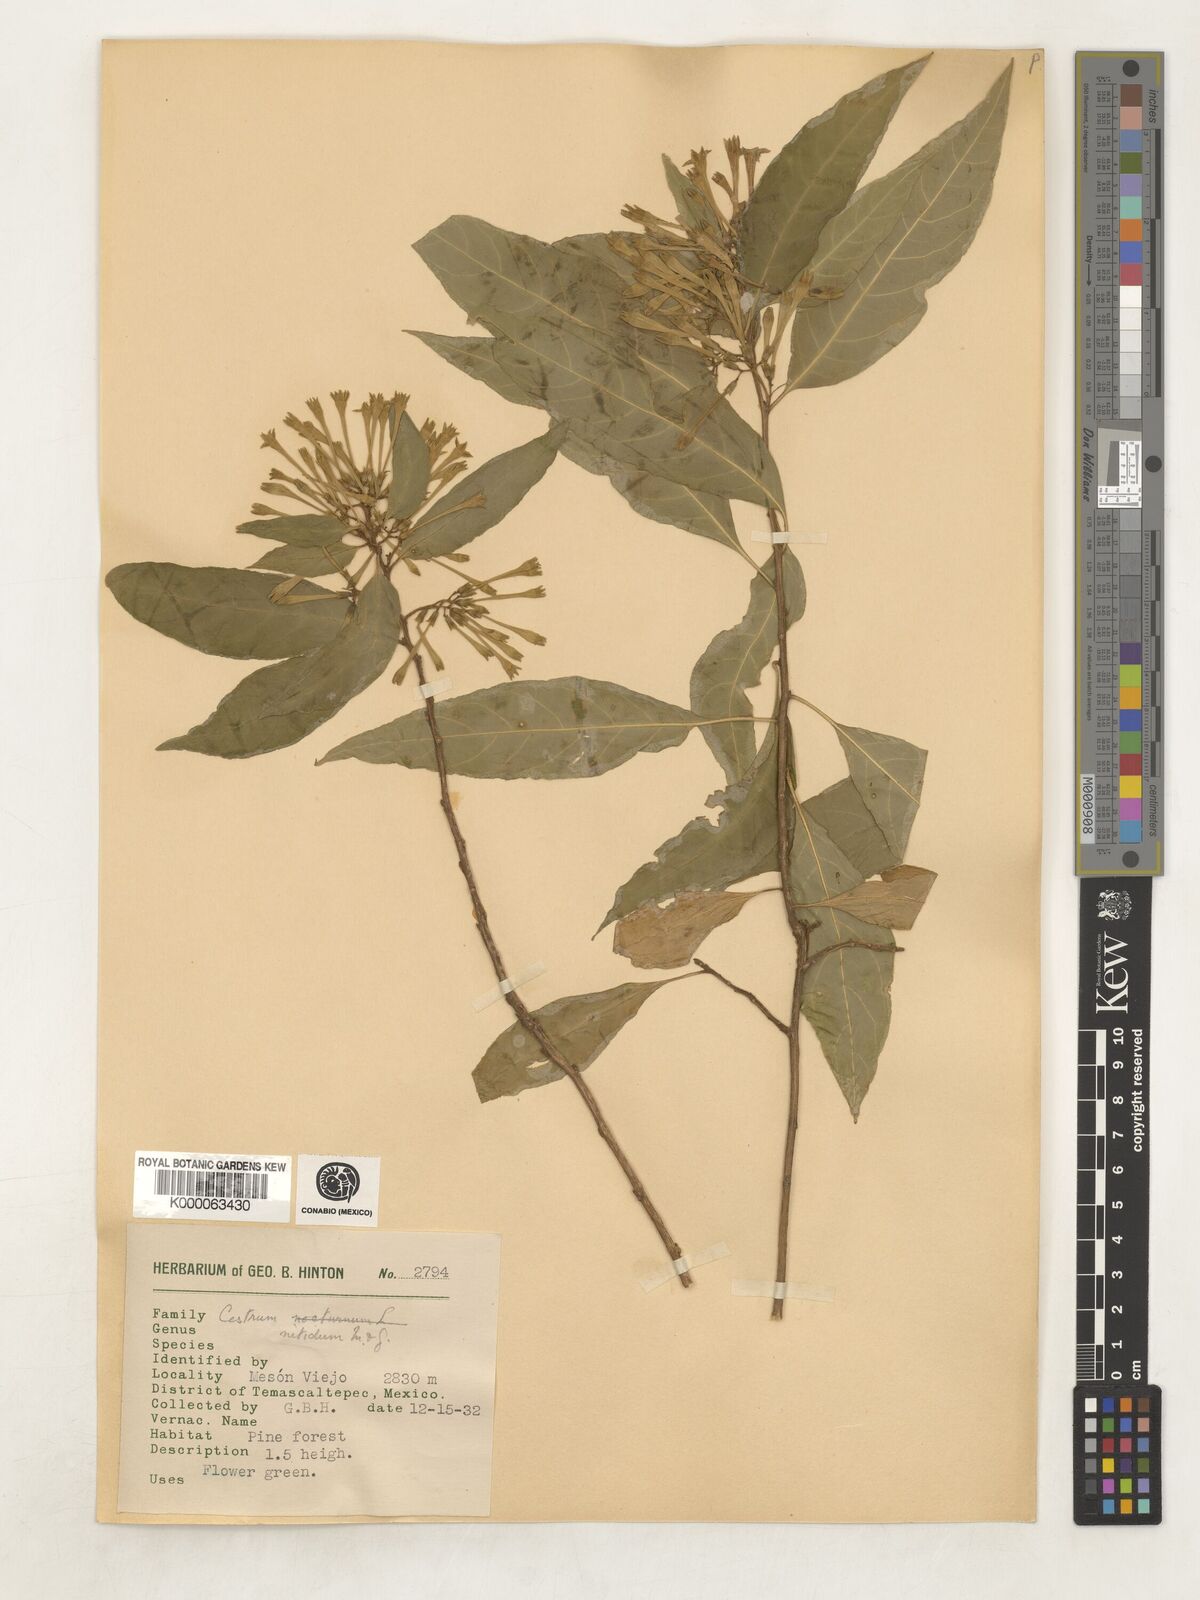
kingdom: Plantae
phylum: Tracheophyta
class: Magnoliopsida
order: Solanales
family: Solanaceae
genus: Cestrum
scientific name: Cestrum nitidum
